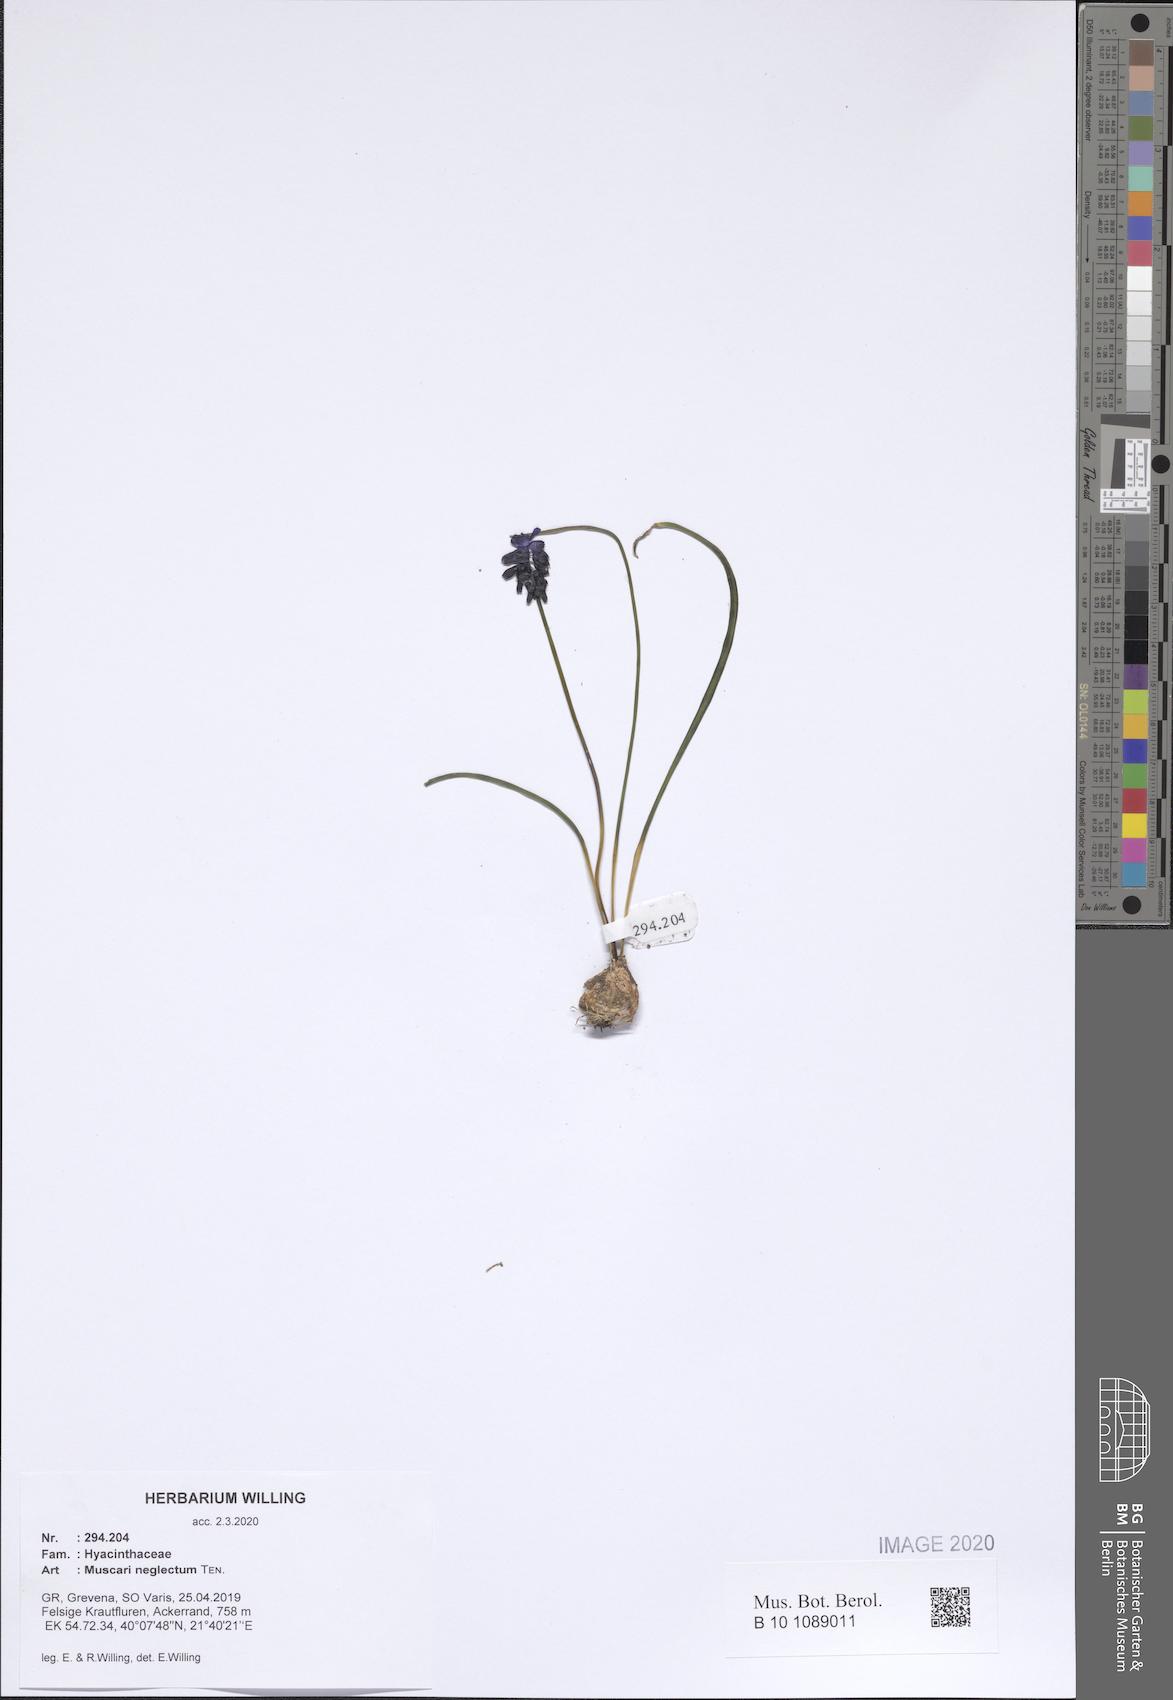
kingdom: Plantae
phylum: Tracheophyta
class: Liliopsida
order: Asparagales
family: Asparagaceae
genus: Muscari
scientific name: Muscari neglectum
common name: Grape-hyacinth
